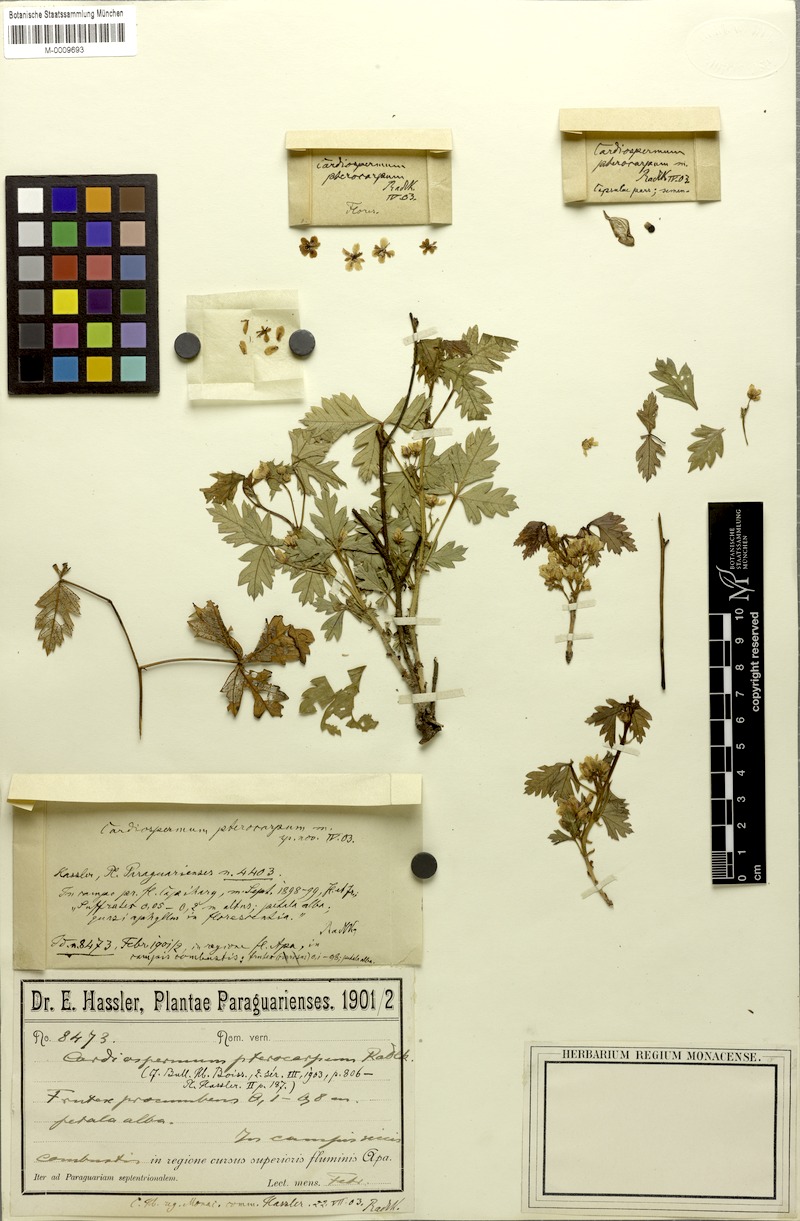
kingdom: Plantae
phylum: Tracheophyta
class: Magnoliopsida
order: Sapindales
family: Sapindaceae
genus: Urvillea
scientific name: Urvillea pterocarpa
